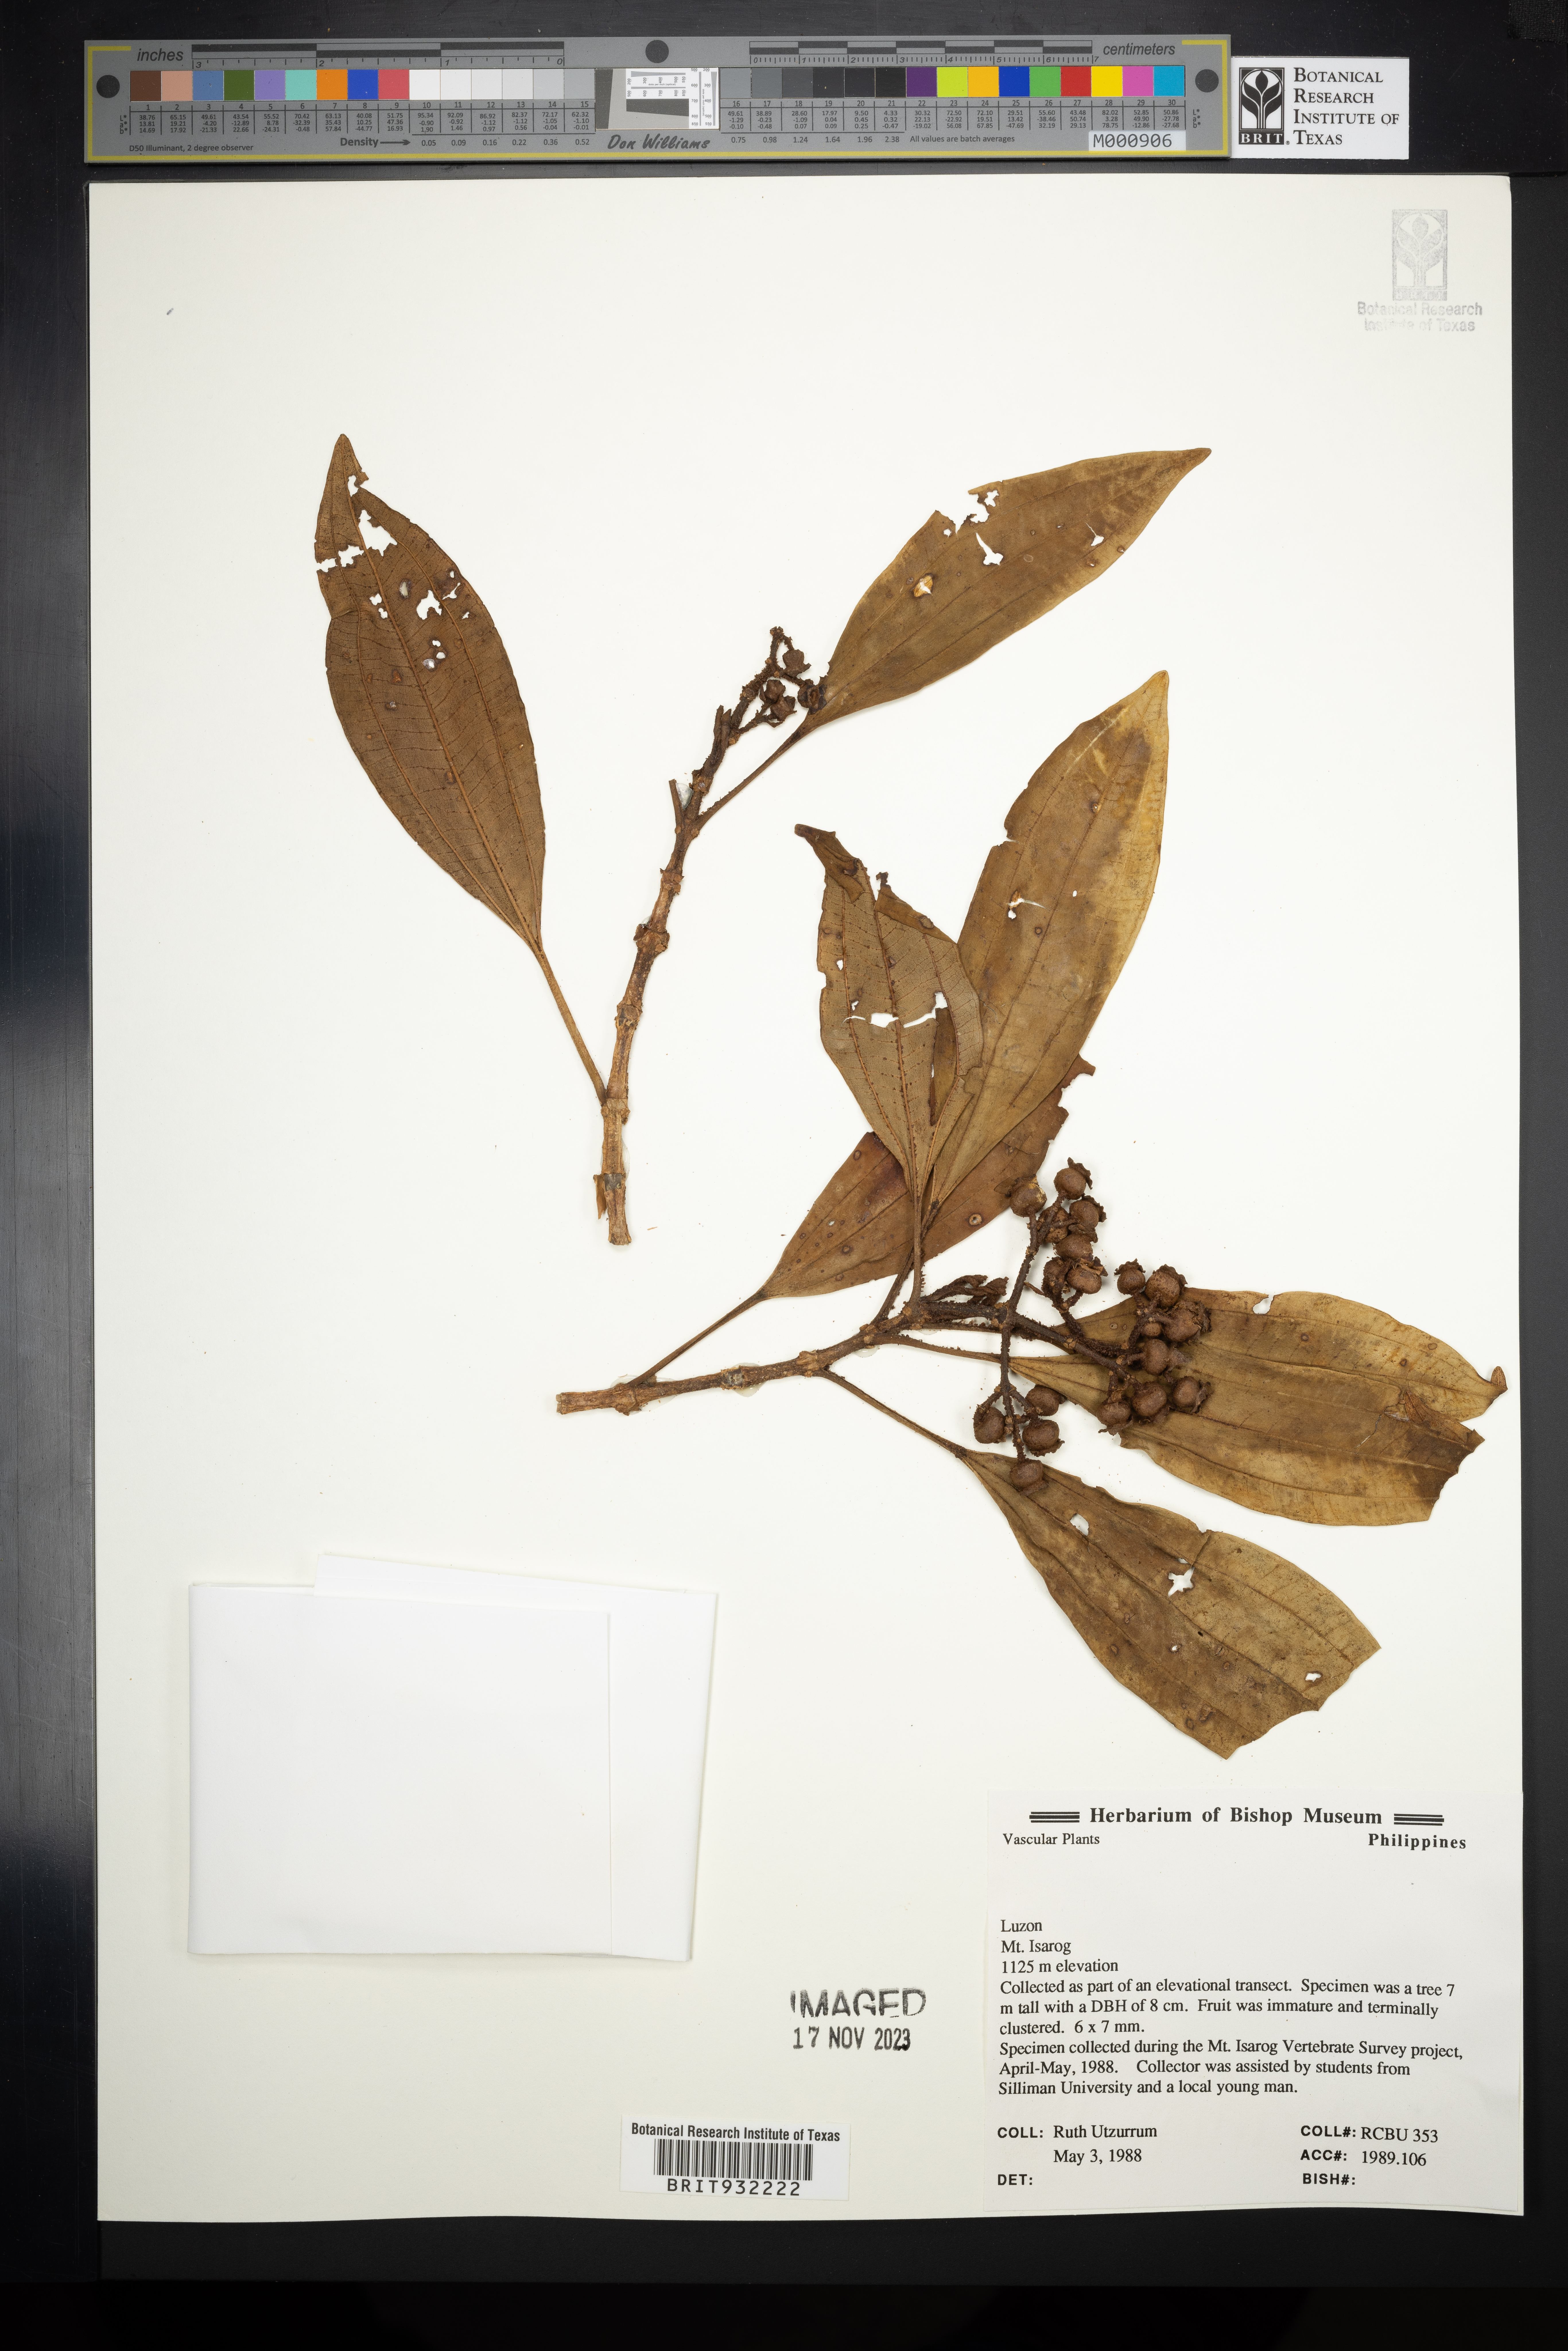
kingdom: Plantae
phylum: Tracheophyta
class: Magnoliopsida
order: Myrtales
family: Melastomataceae
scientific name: Melastomataceae
